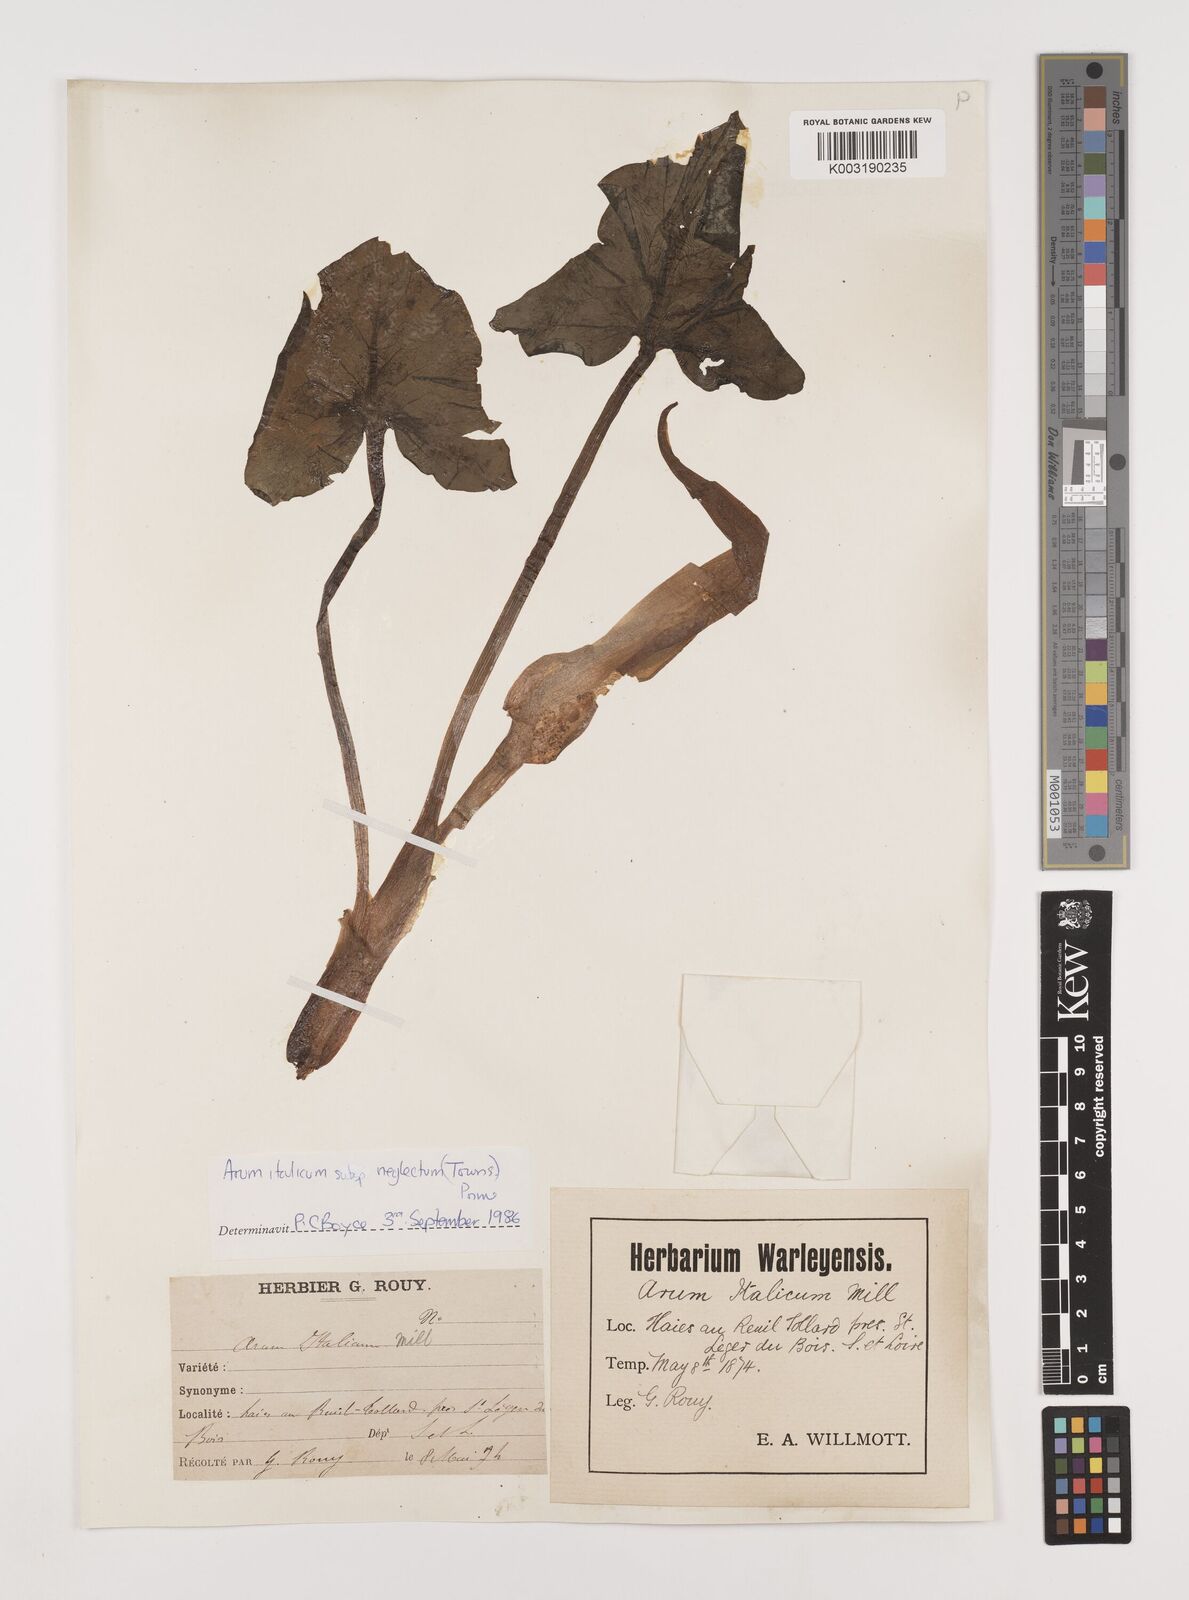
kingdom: Plantae
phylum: Tracheophyta
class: Liliopsida
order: Alismatales
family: Araceae
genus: Arum
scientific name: Arum italicum
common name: Italian lords-and-ladies
